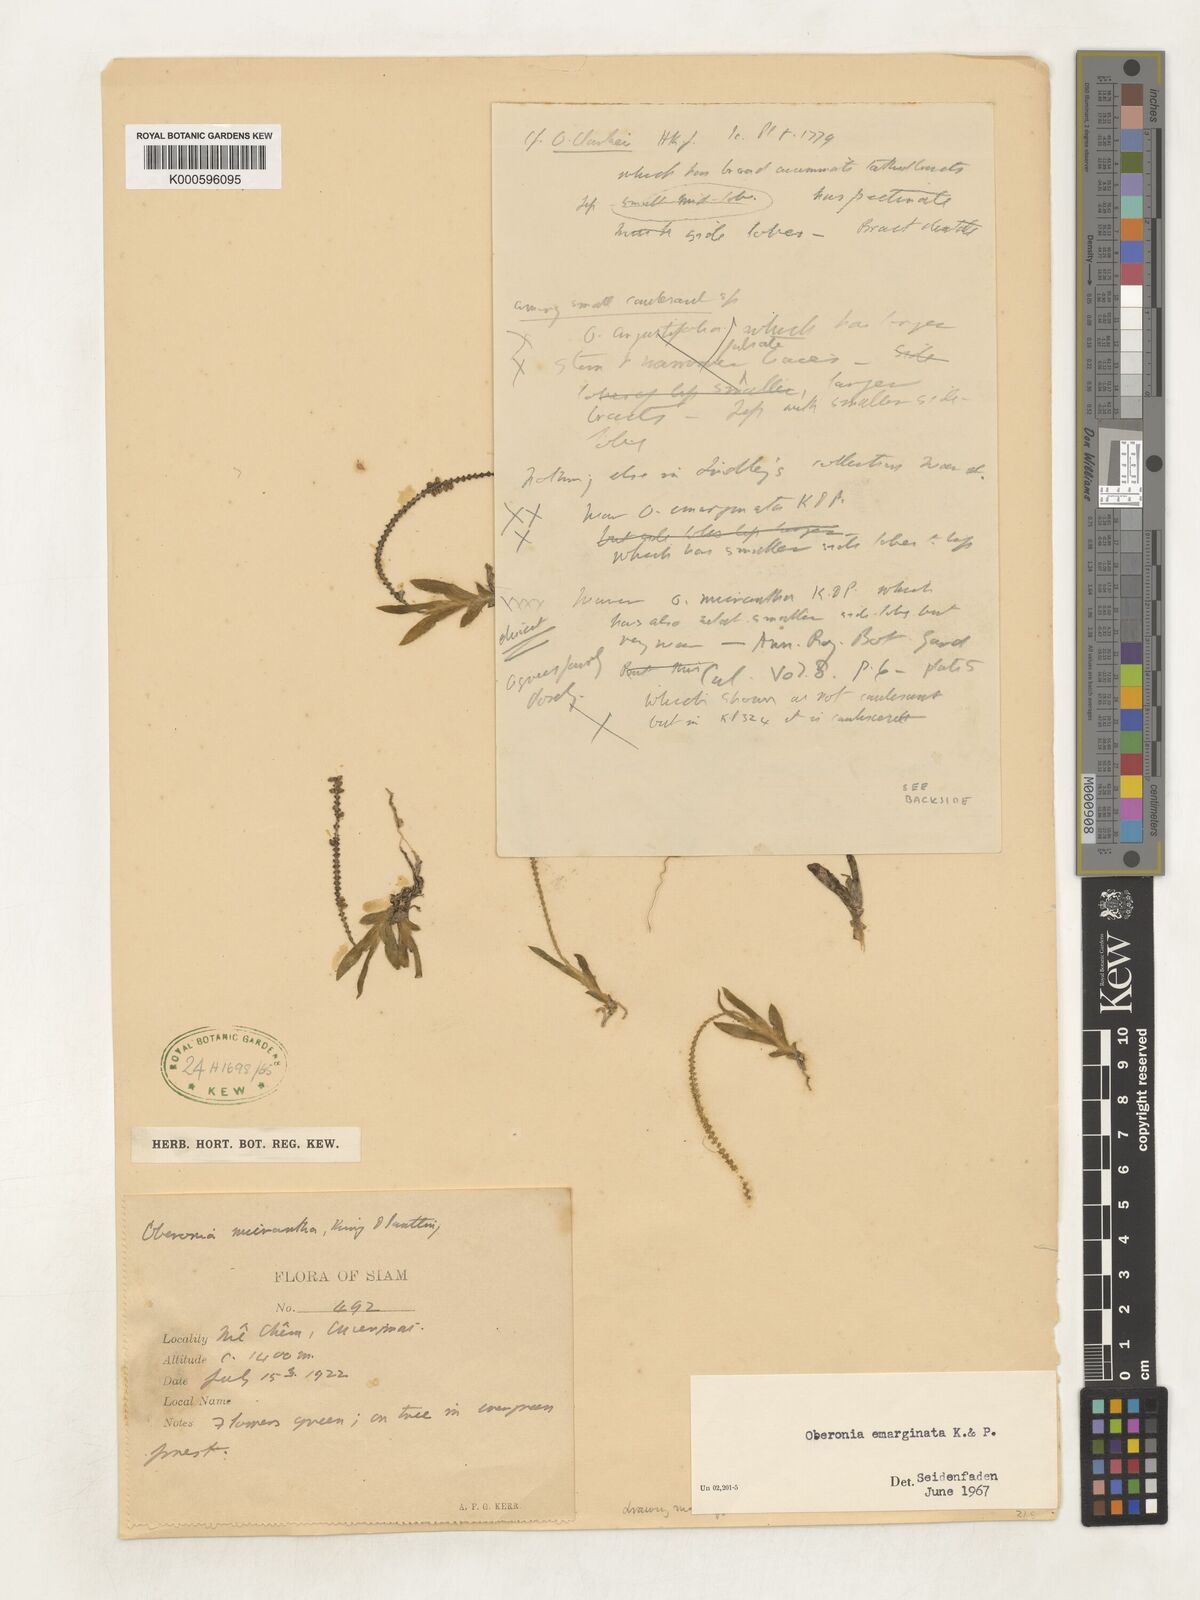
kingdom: Plantae
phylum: Tracheophyta
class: Liliopsida
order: Asparagales
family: Orchidaceae
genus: Oberonia
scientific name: Oberonia emarginata
